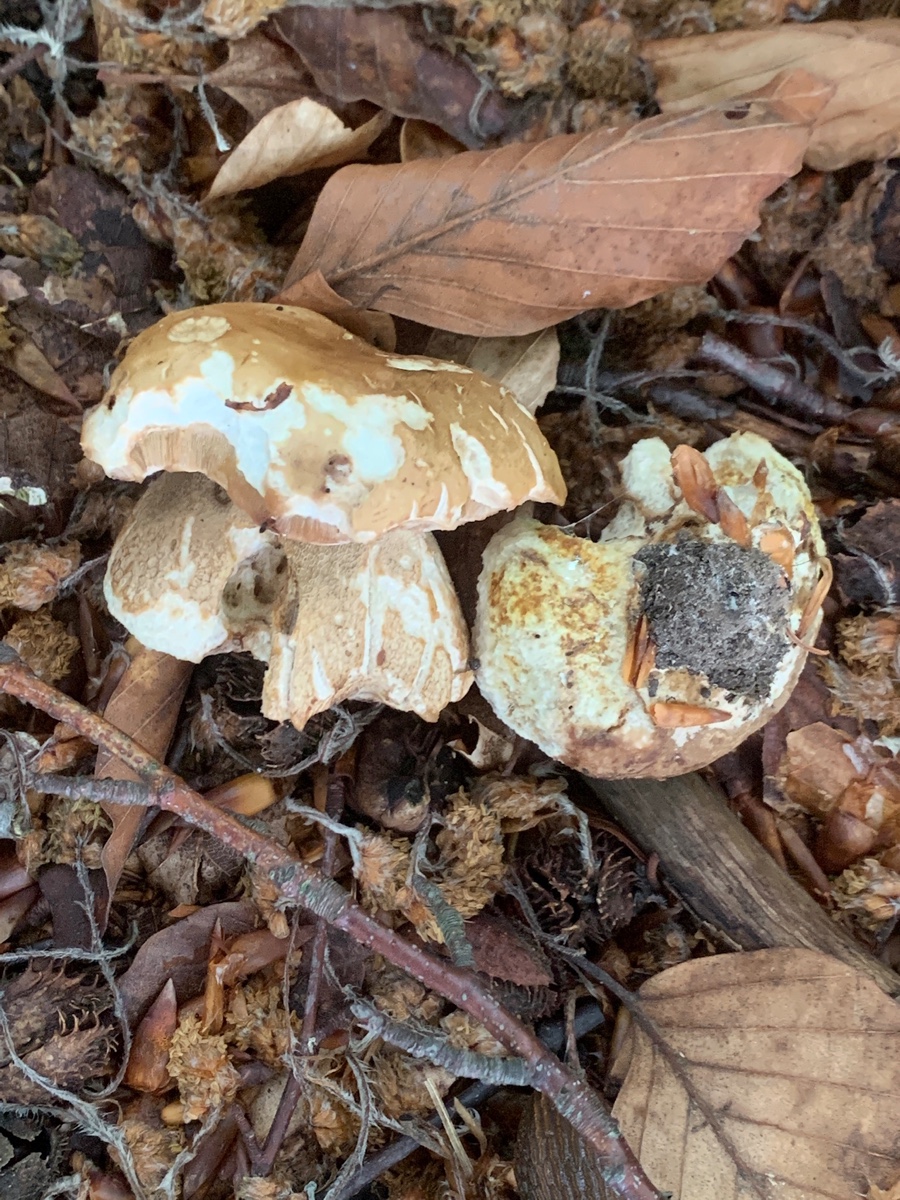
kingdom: Fungi
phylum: Basidiomycota
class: Agaricomycetes
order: Boletales
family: Boletaceae
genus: Boletus
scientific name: Boletus reticulatus
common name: sommer-rørhat
